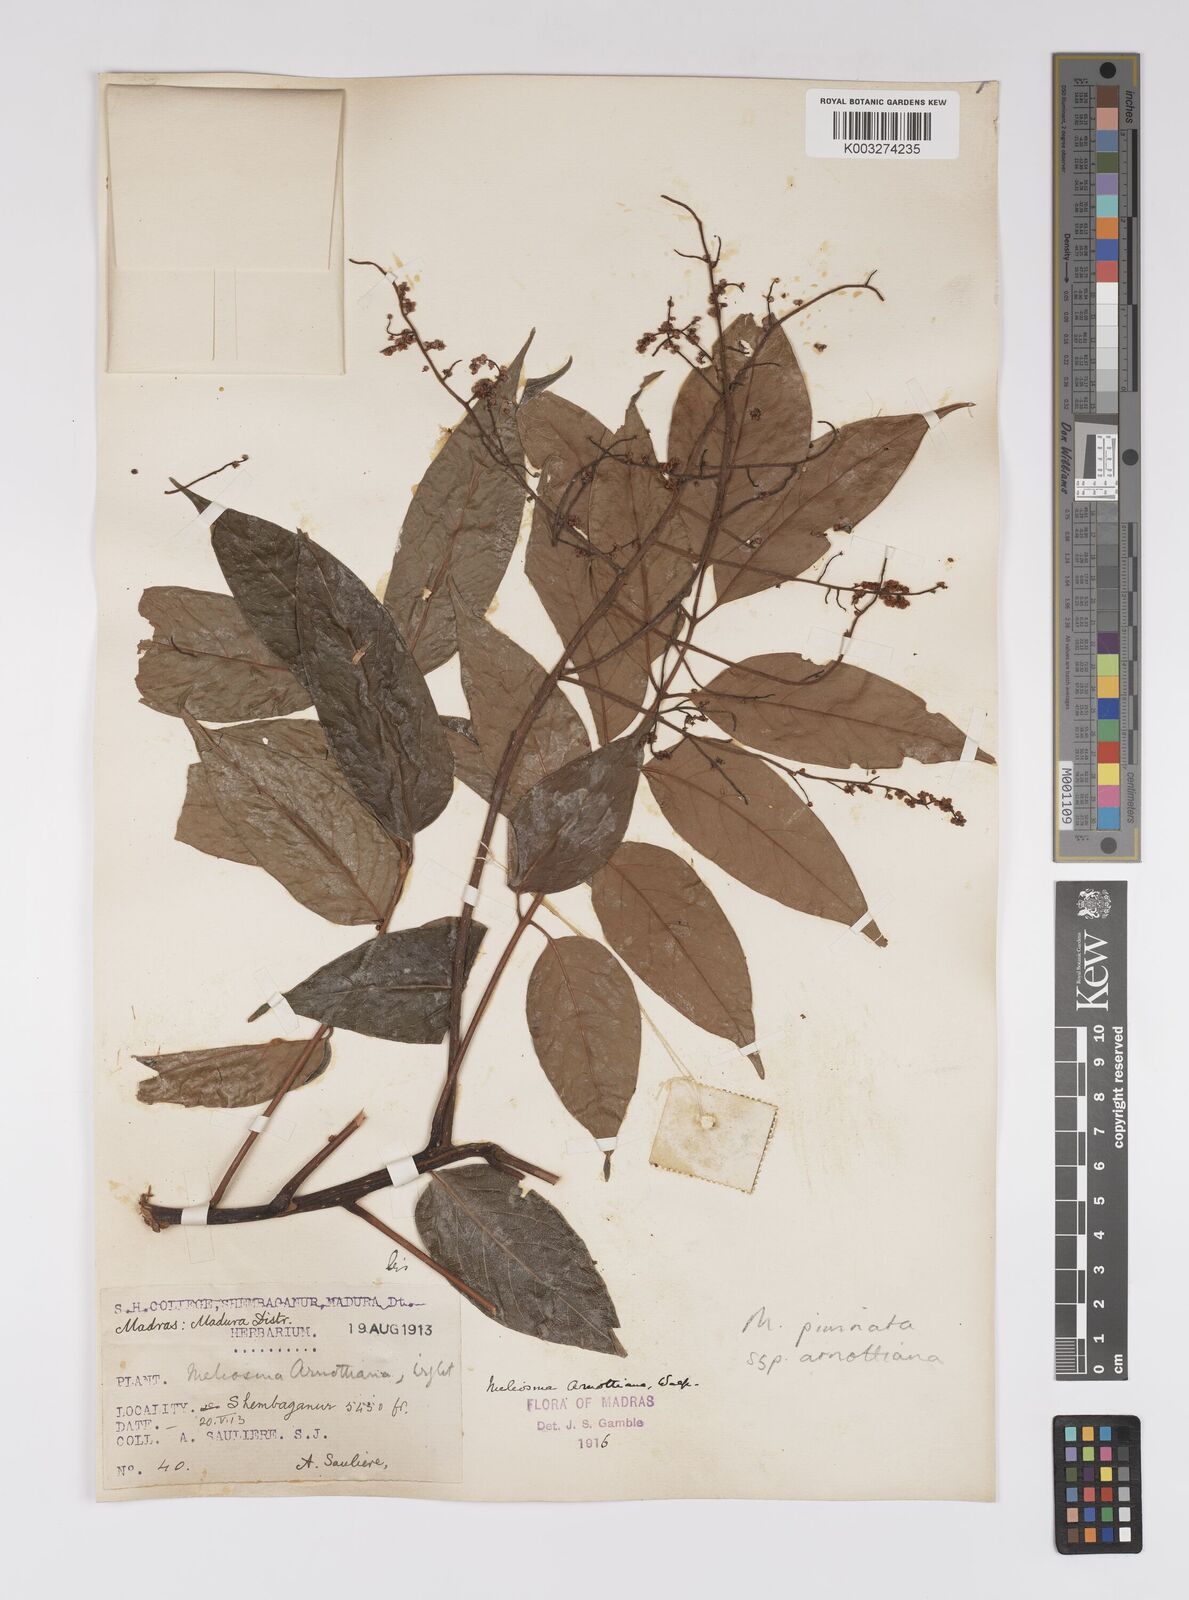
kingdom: Plantae
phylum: Tracheophyta
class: Magnoliopsida
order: Proteales
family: Sabiaceae
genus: Meliosma
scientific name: Meliosma rhoifolia
